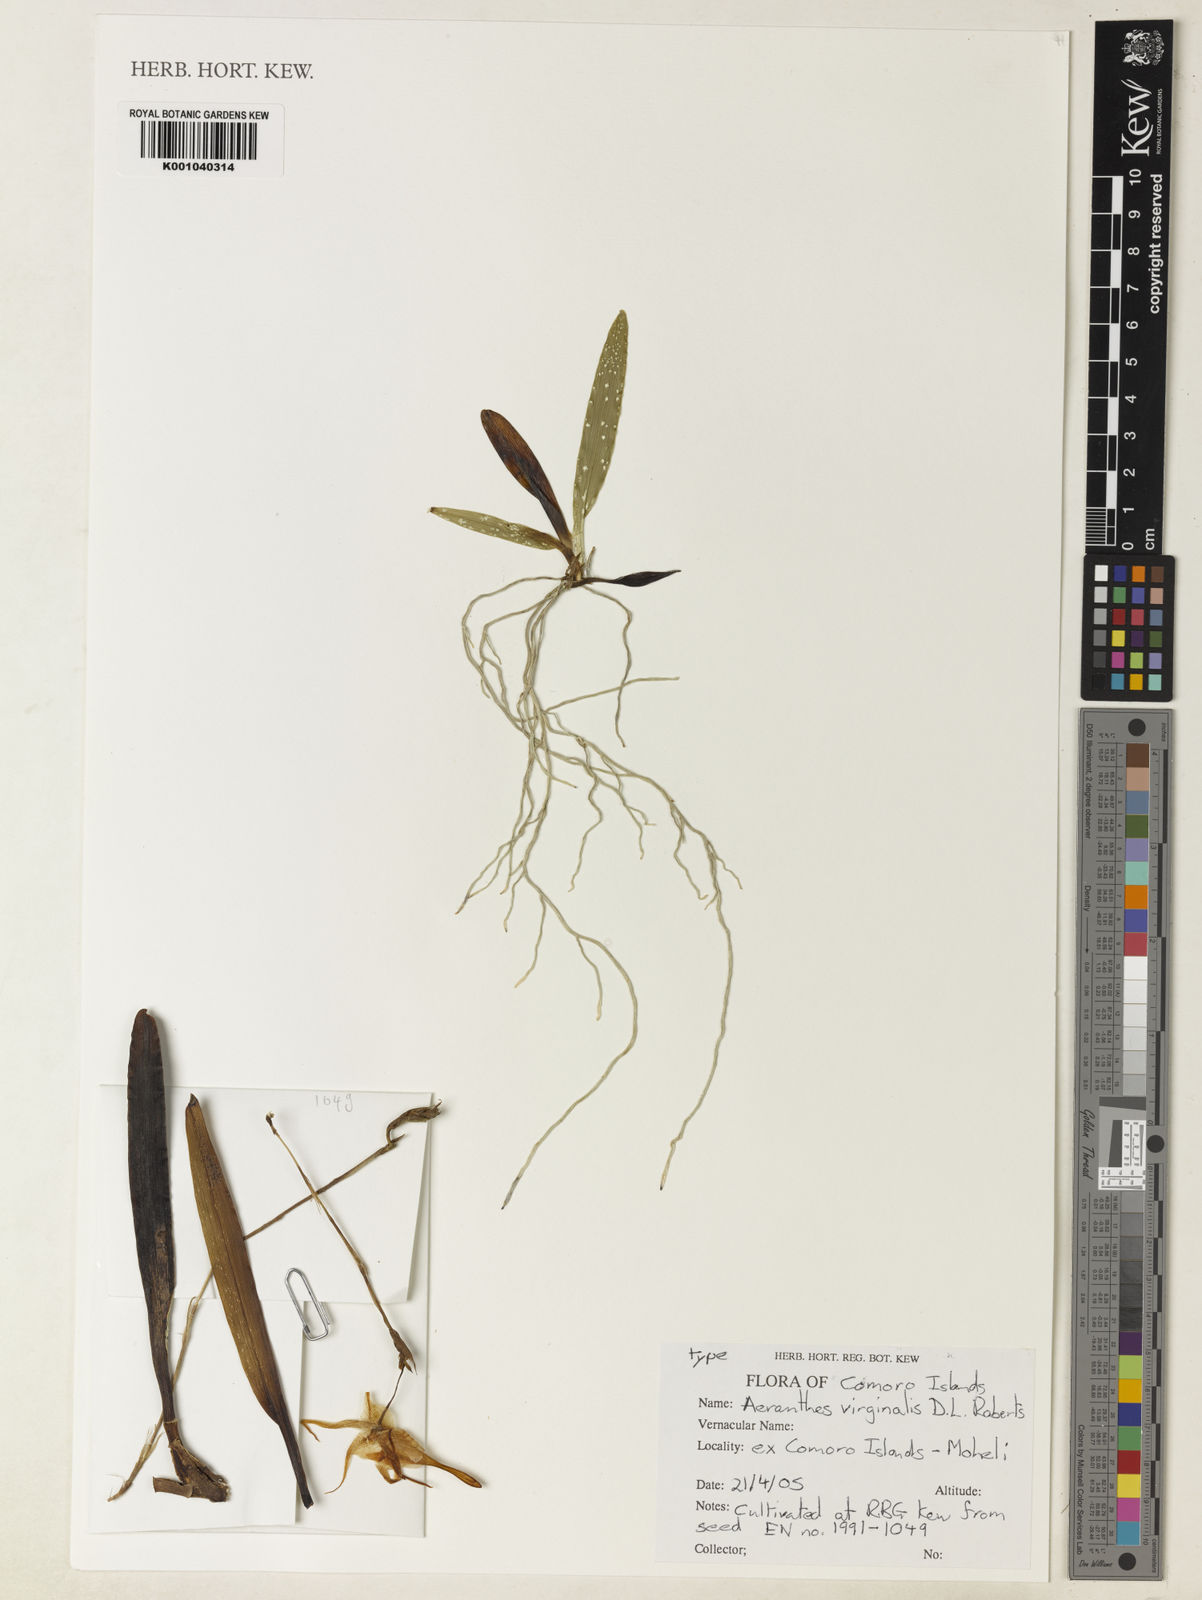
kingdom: Plantae
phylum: Tracheophyta
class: Liliopsida
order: Asparagales
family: Orchidaceae
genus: Aeranthes
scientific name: Aeranthes virginalis
